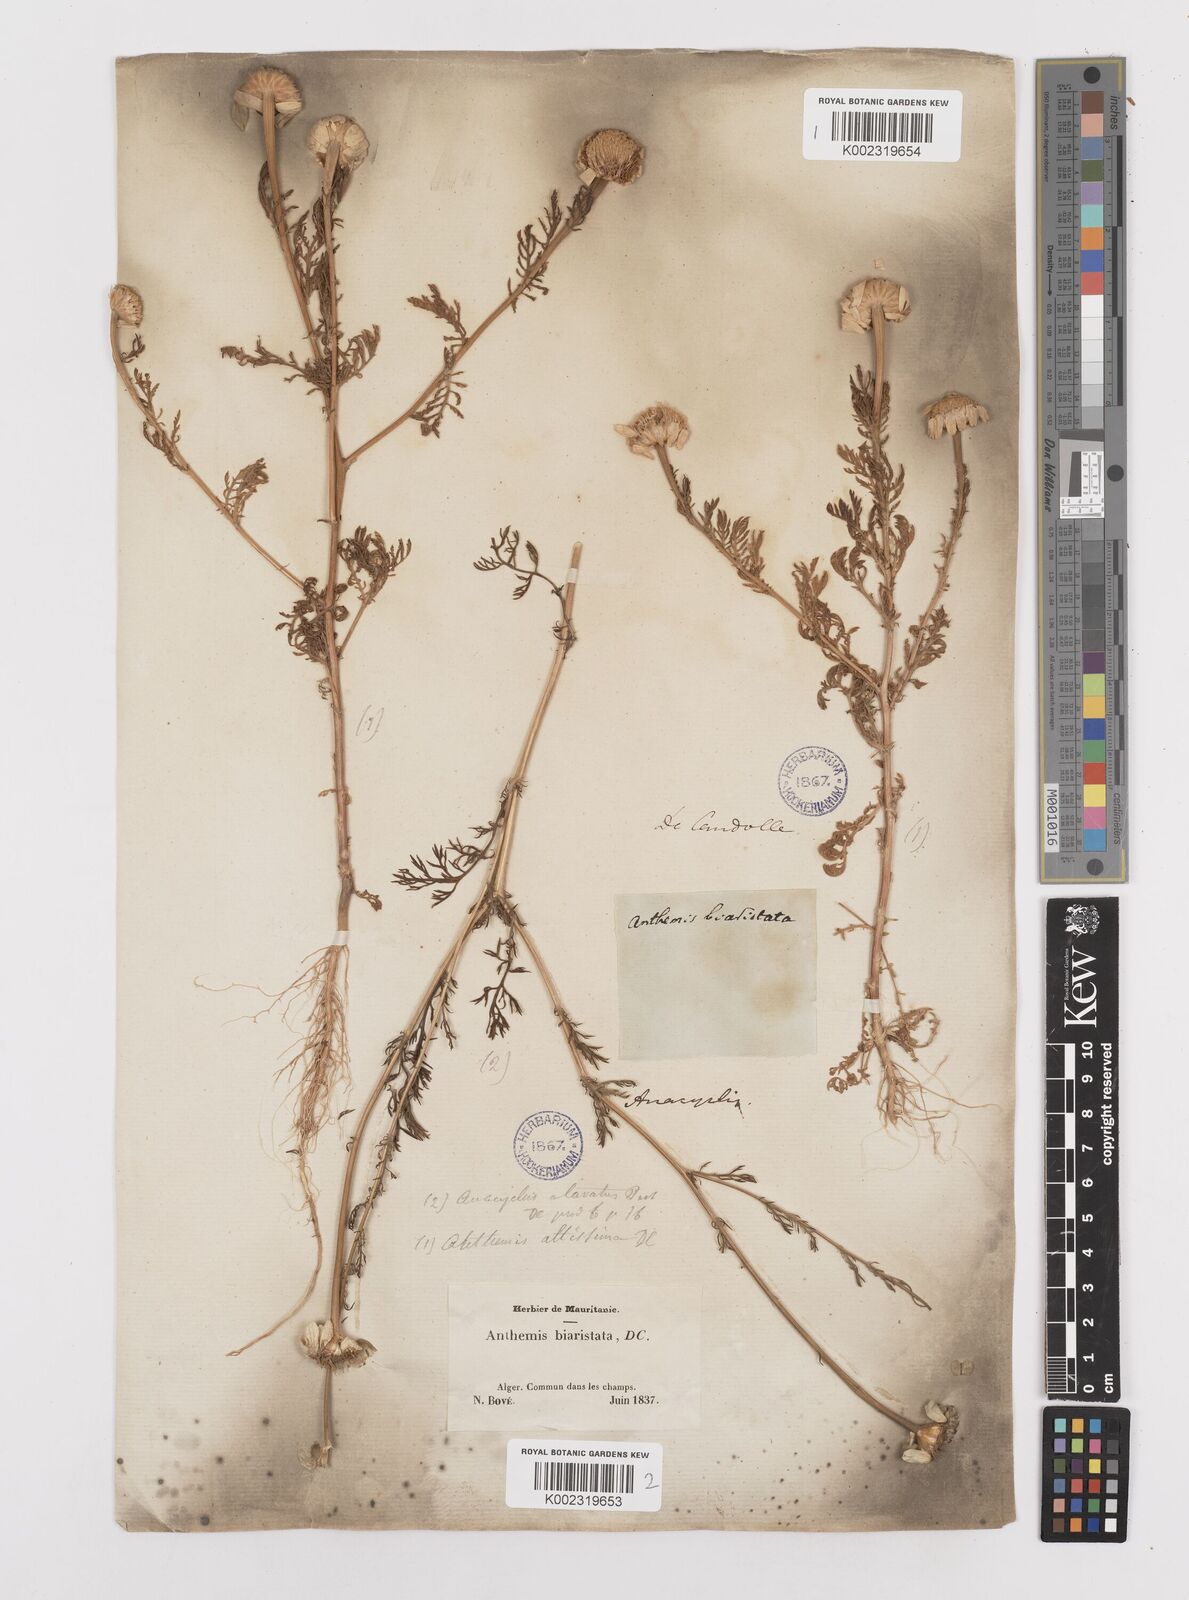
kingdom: Plantae
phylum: Tracheophyta
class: Magnoliopsida
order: Asterales
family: Asteraceae
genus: Anacyclus
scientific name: Anacyclus linearilobus
